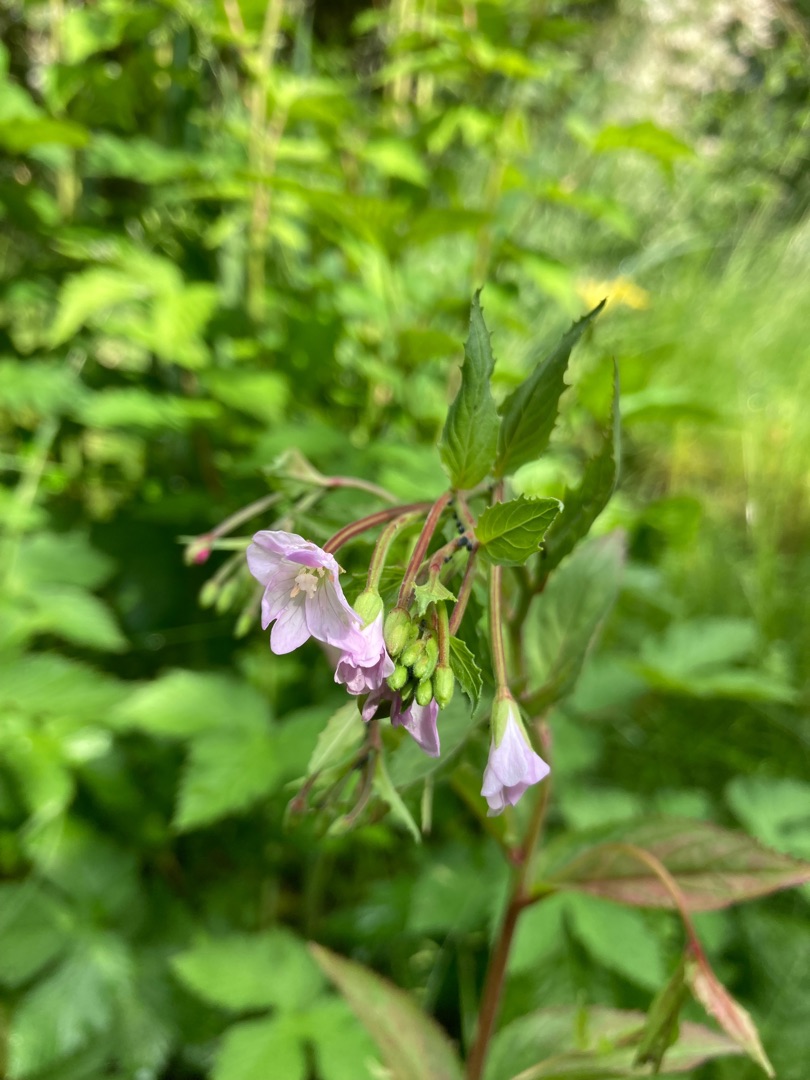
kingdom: Plantae
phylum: Tracheophyta
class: Magnoliopsida
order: Myrtales
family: Onagraceae
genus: Epilobium
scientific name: Epilobium montanum
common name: Glat dueurt
